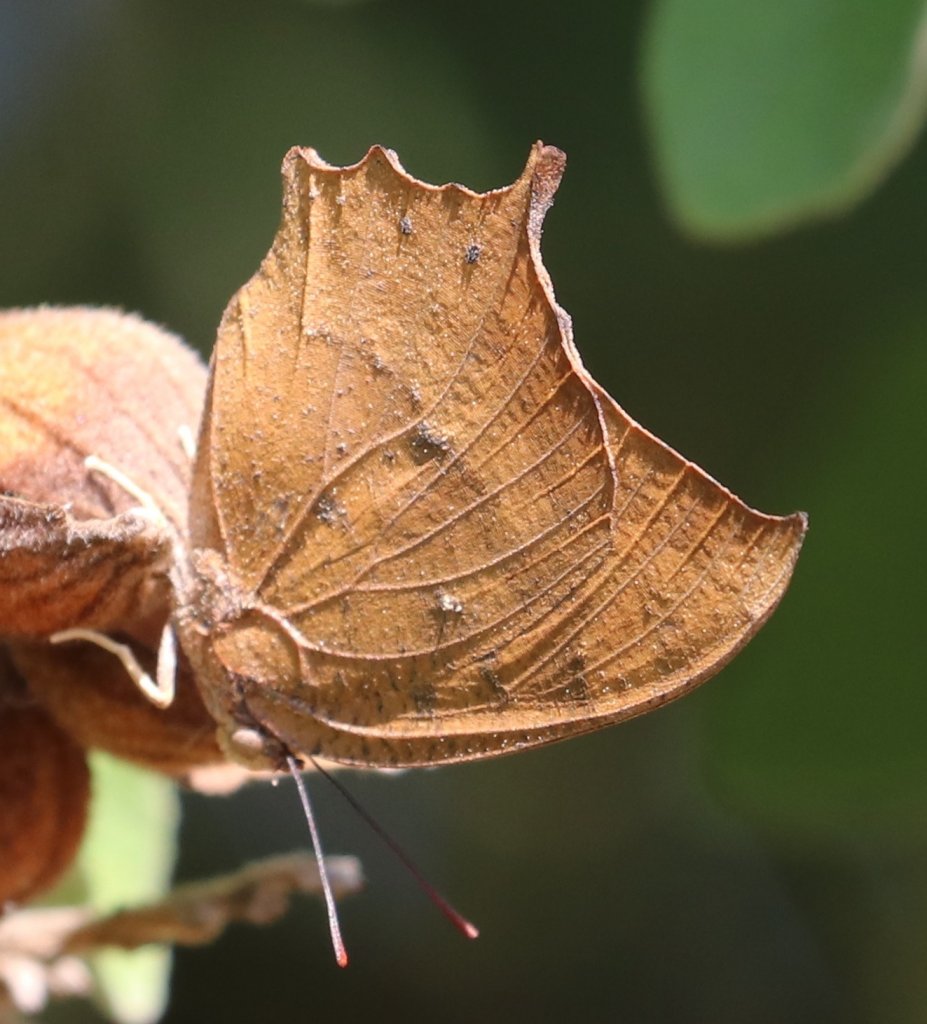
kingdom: Animalia
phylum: Arthropoda
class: Insecta
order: Lepidoptera
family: Nymphalidae
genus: Anaea
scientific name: Anaea andria
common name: Goatweed Leafwing
